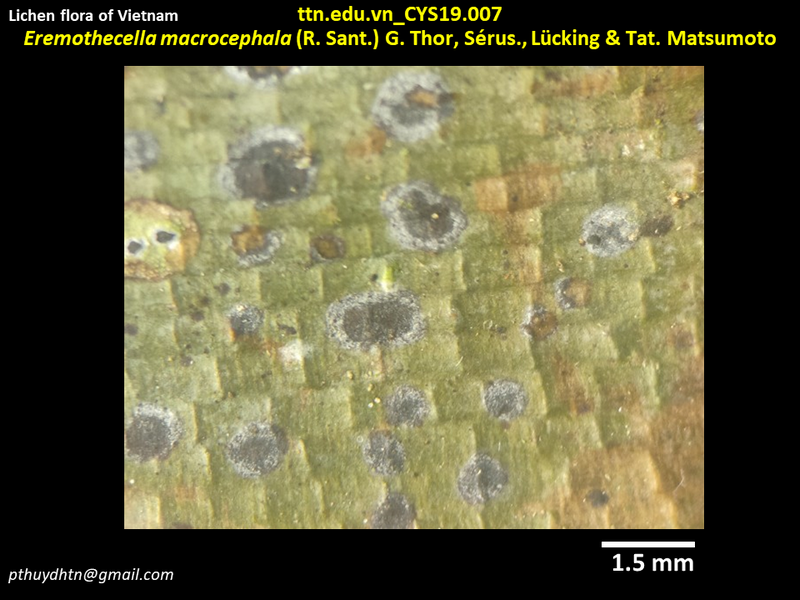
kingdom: Fungi
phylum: Ascomycota
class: Arthoniomycetes
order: Arthoniales
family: Arthoniaceae
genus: Eremothecella
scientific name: Eremothecella macrocephala
